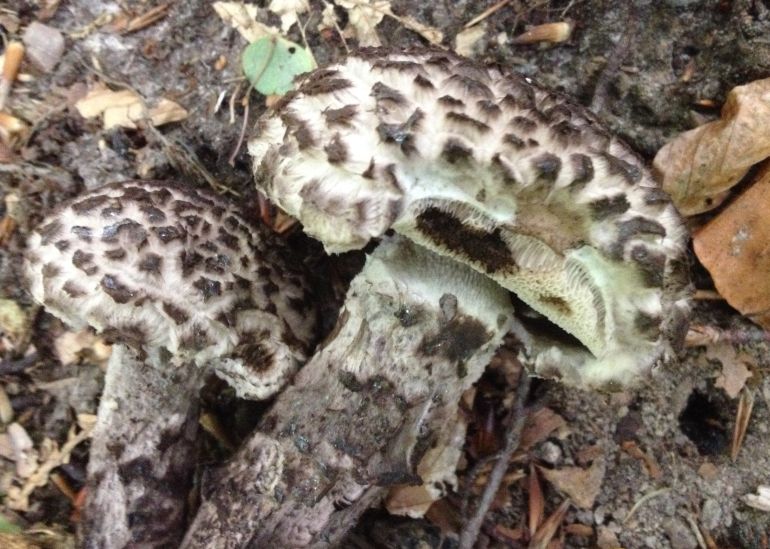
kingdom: Fungi
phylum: Basidiomycota
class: Agaricomycetes
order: Boletales
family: Boletaceae
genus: Strobilomyces
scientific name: Strobilomyces strobilaceus
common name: koglerørhat
